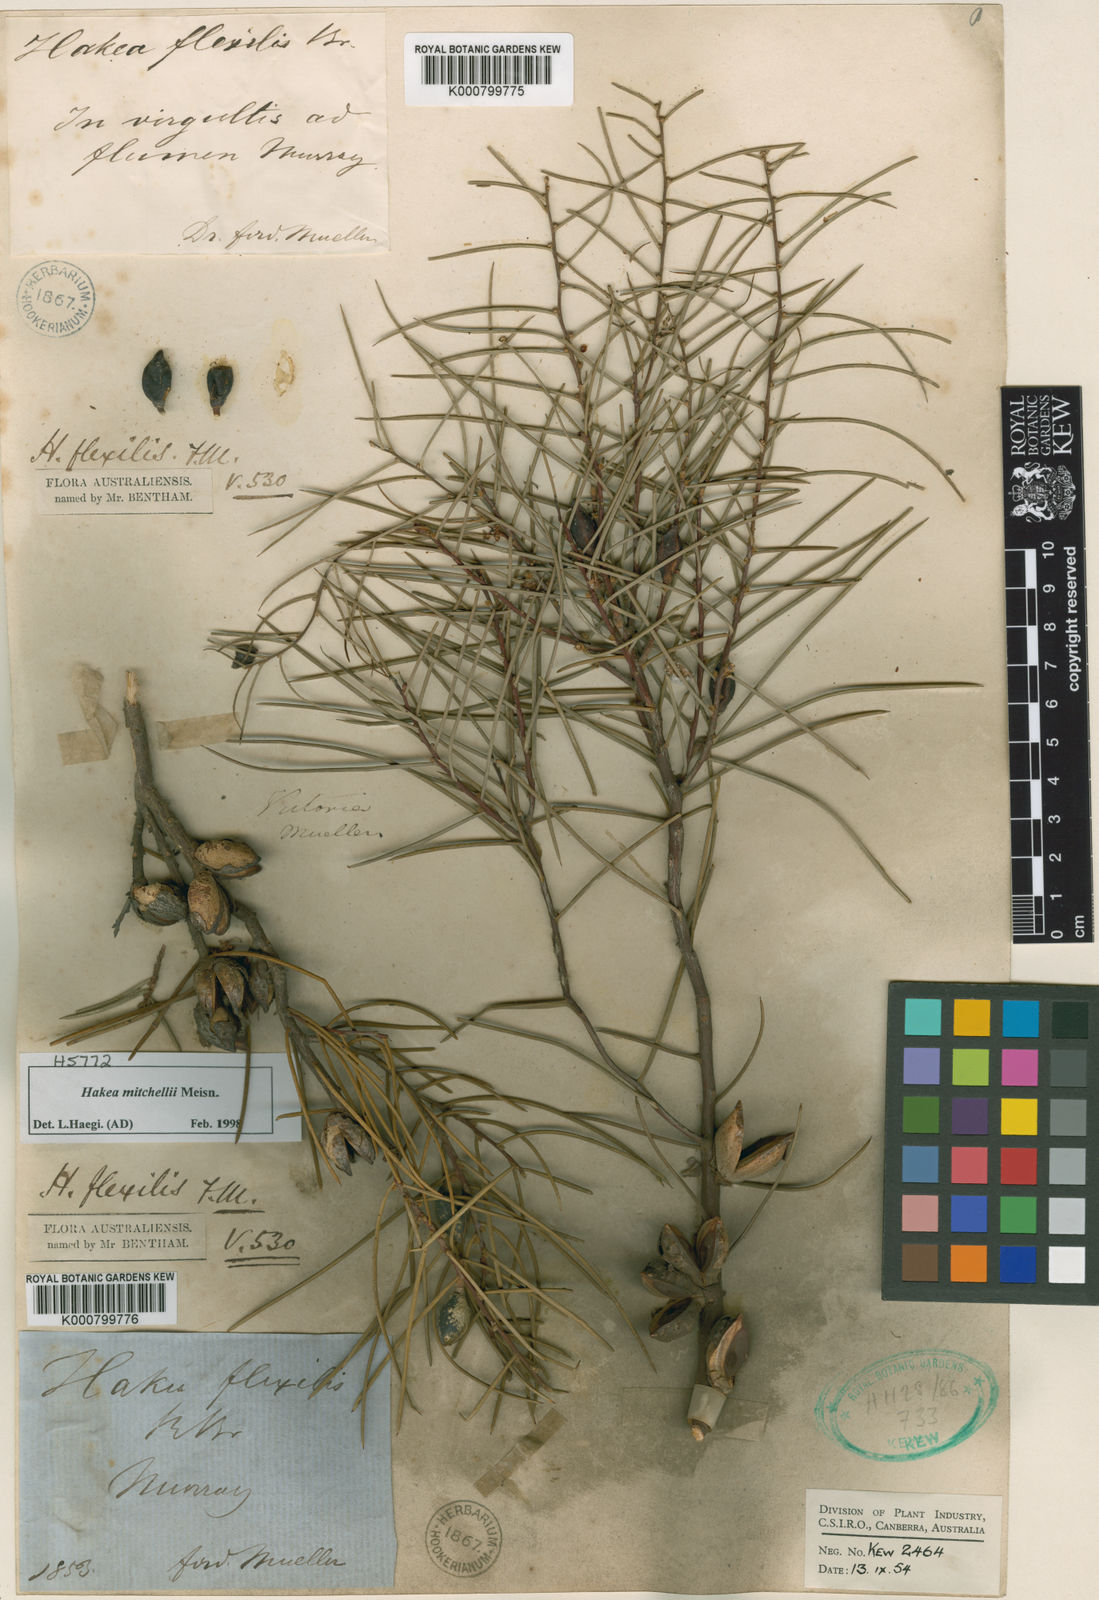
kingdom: Plantae
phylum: Tracheophyta
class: Magnoliopsida
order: Proteales
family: Proteaceae
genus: Hakea
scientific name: Hakea mitchellii
